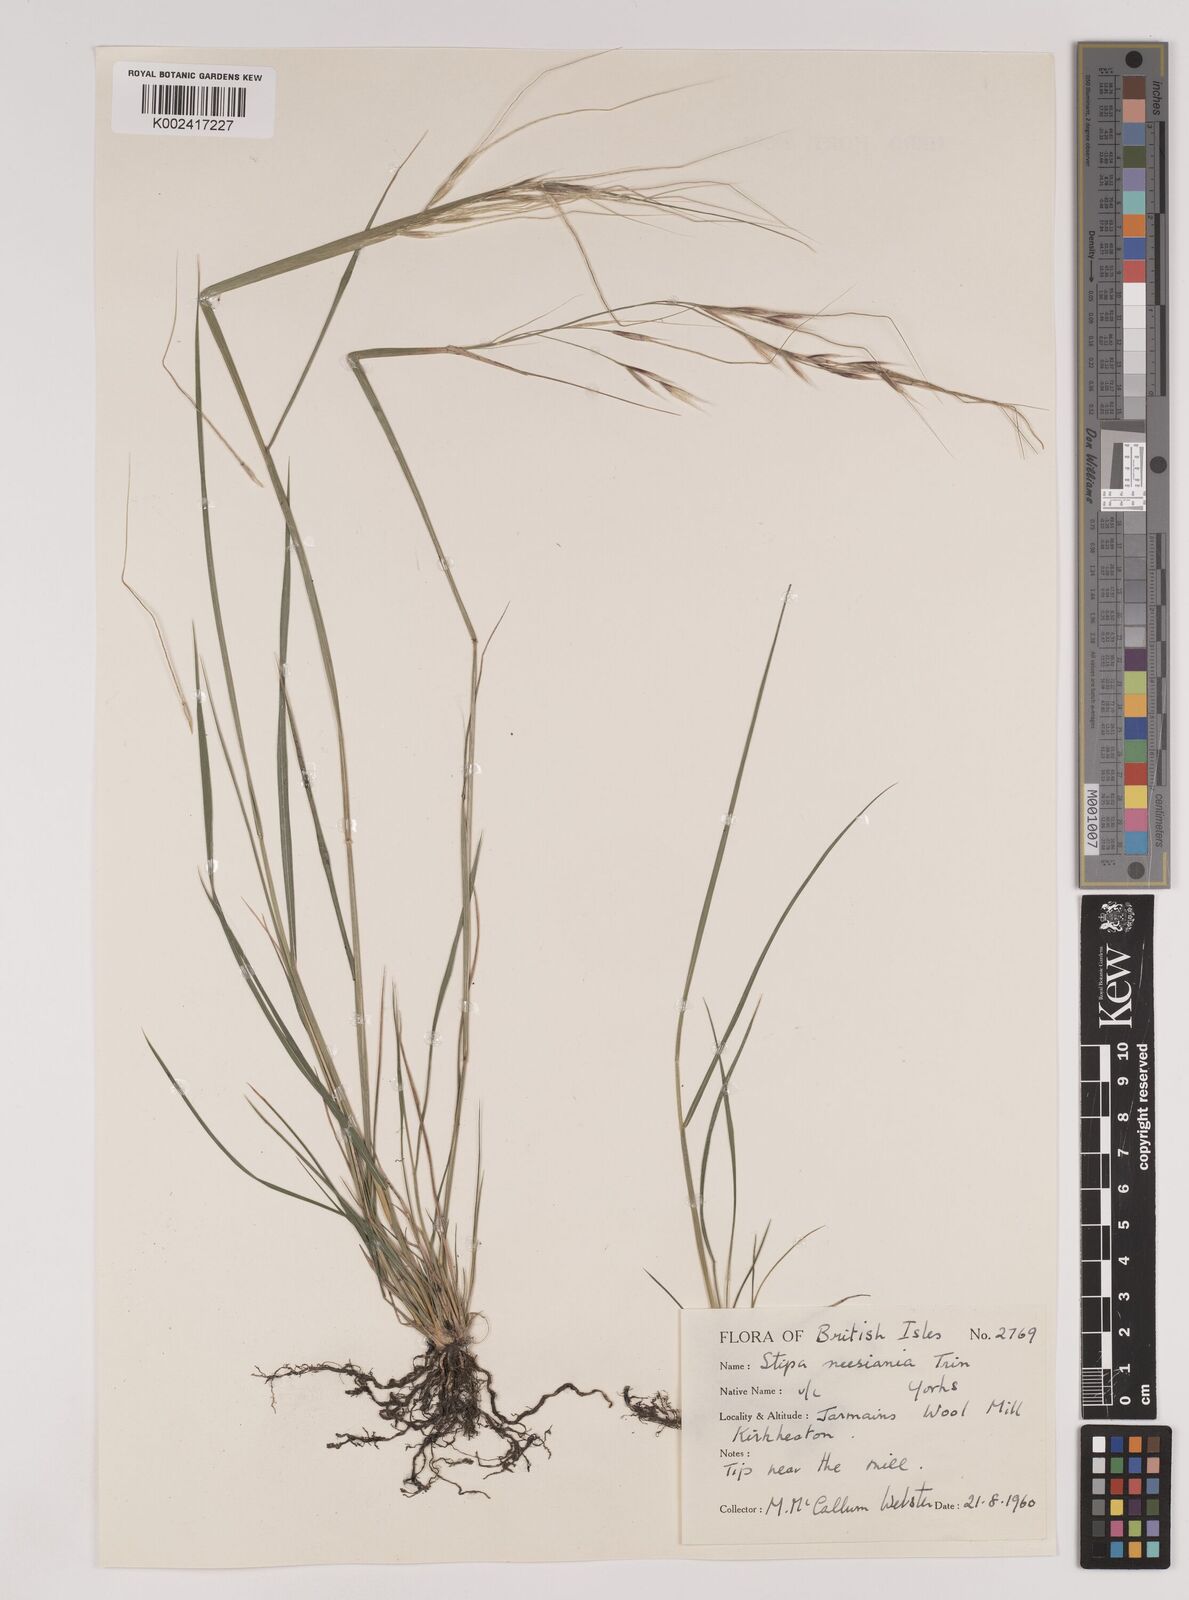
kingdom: Plantae
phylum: Tracheophyta
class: Liliopsida
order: Poales
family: Poaceae
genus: Nassella
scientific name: Nassella neesiana
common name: American needle-grass
